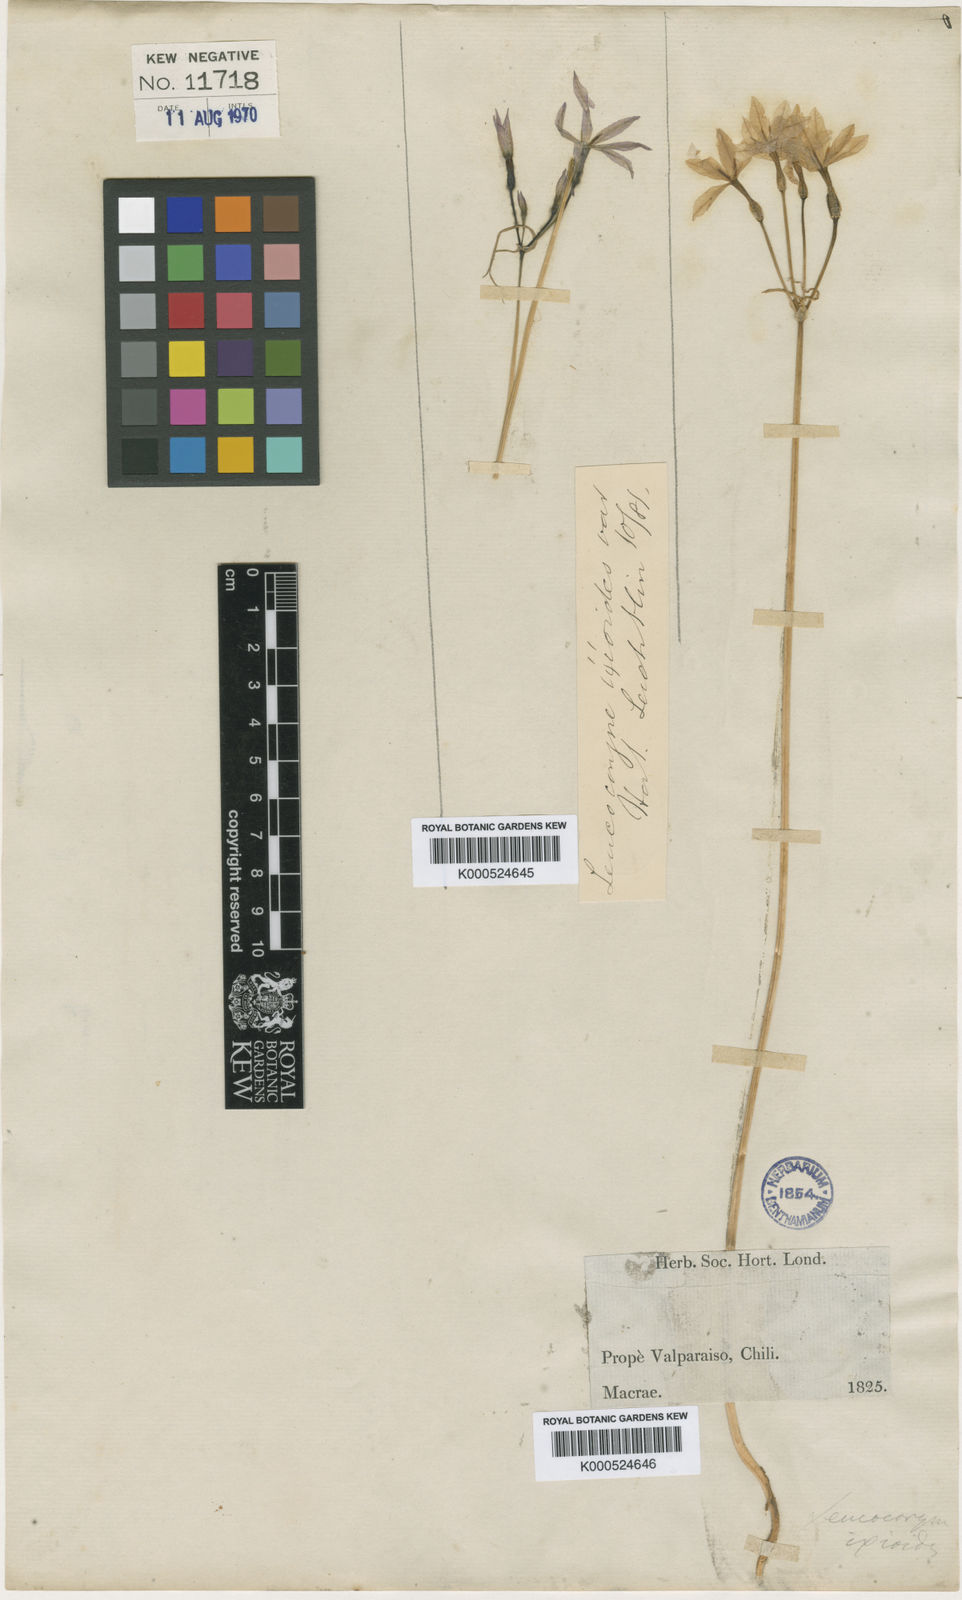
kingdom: Plantae
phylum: Tracheophyta
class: Liliopsida
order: Asparagales
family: Amaryllidaceae
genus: Leucocoryne
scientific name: Leucocoryne ixioides
